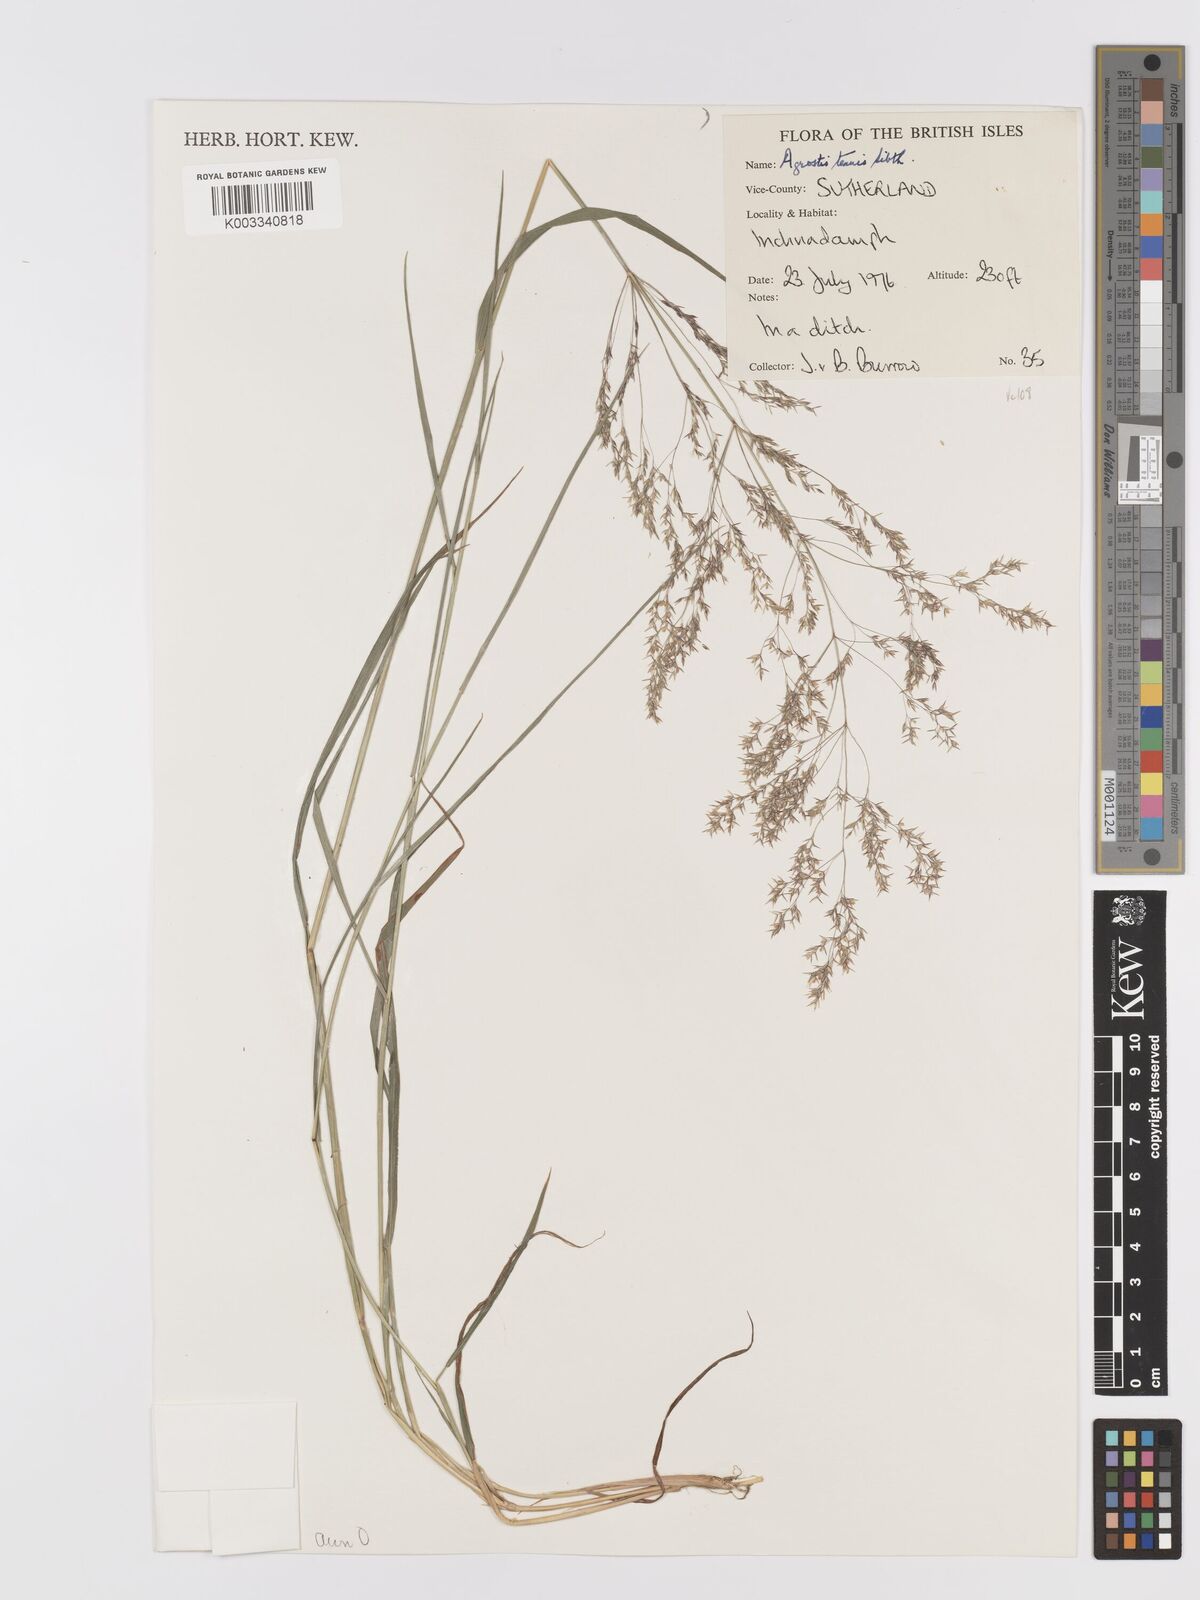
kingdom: Plantae
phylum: Tracheophyta
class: Liliopsida
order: Poales
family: Poaceae
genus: Agrostis
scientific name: Agrostis capillaris
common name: Colonial bentgrass
